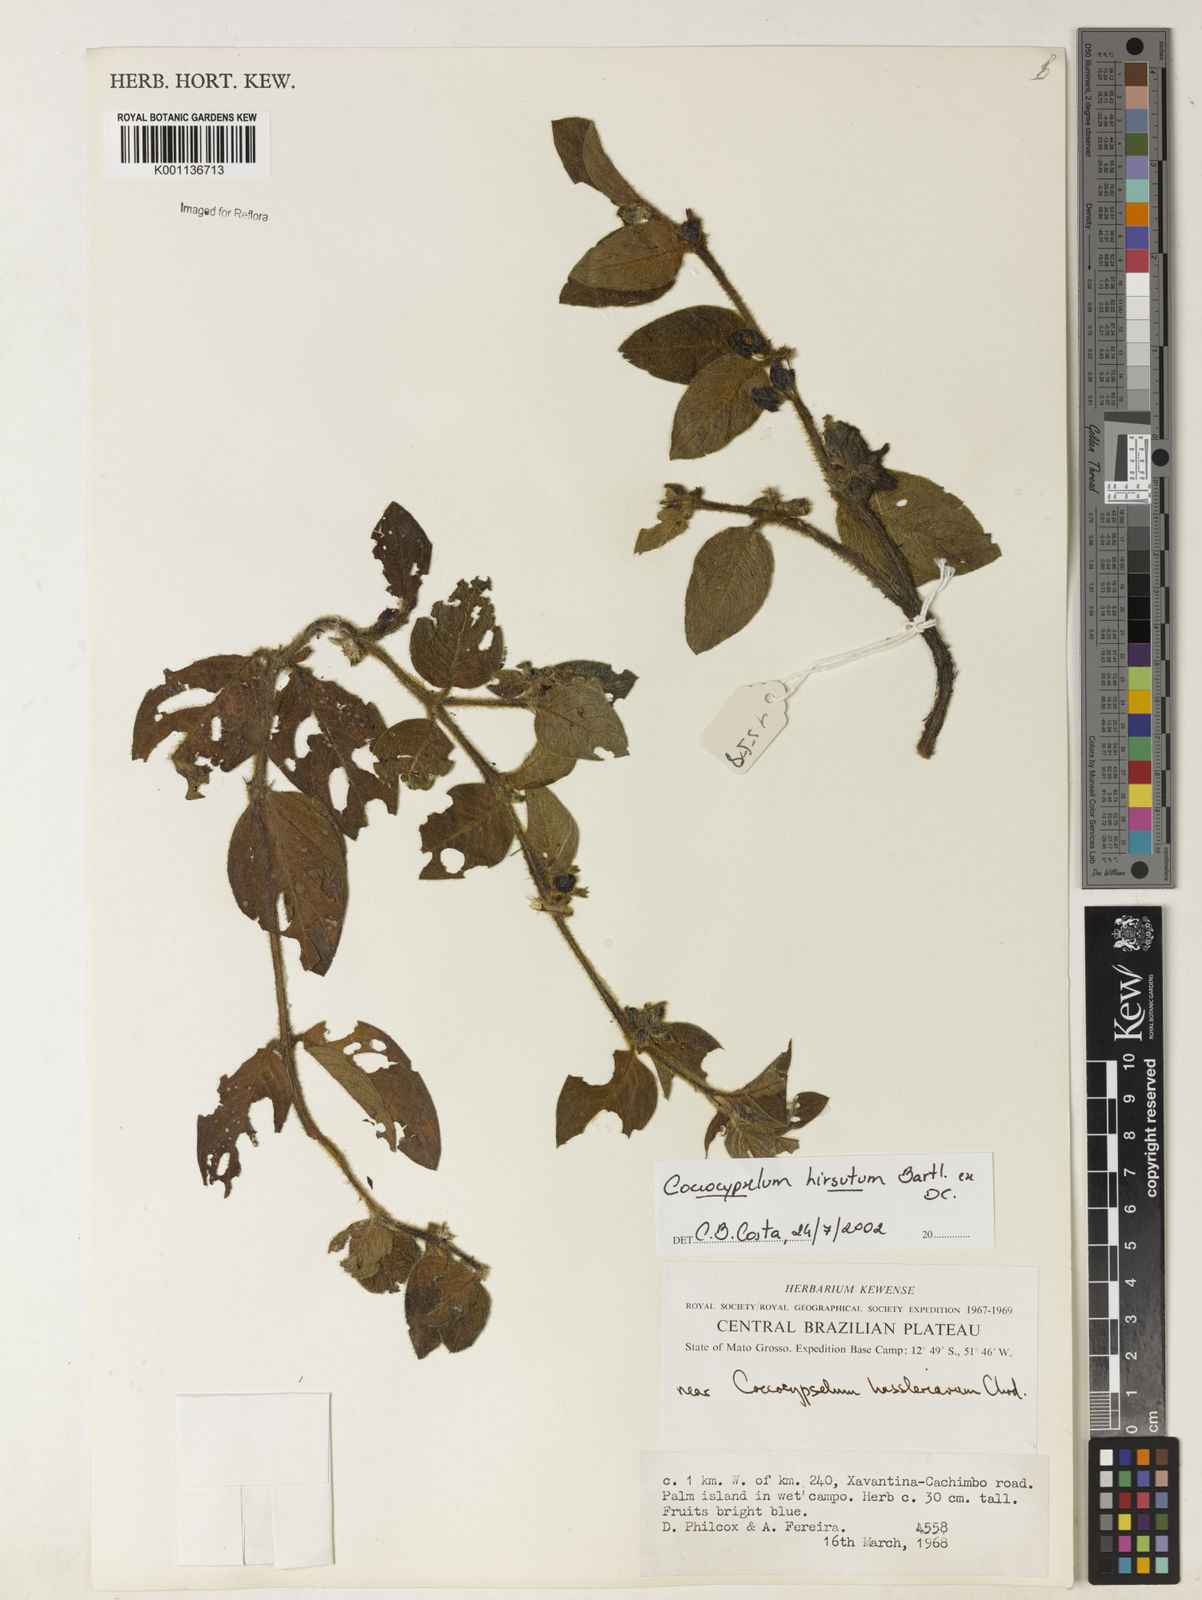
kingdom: Plantae
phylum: Tracheophyta
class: Magnoliopsida
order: Gentianales
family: Rubiaceae
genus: Coccocypselum
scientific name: Coccocypselum hirsutum
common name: Yerba de guava
